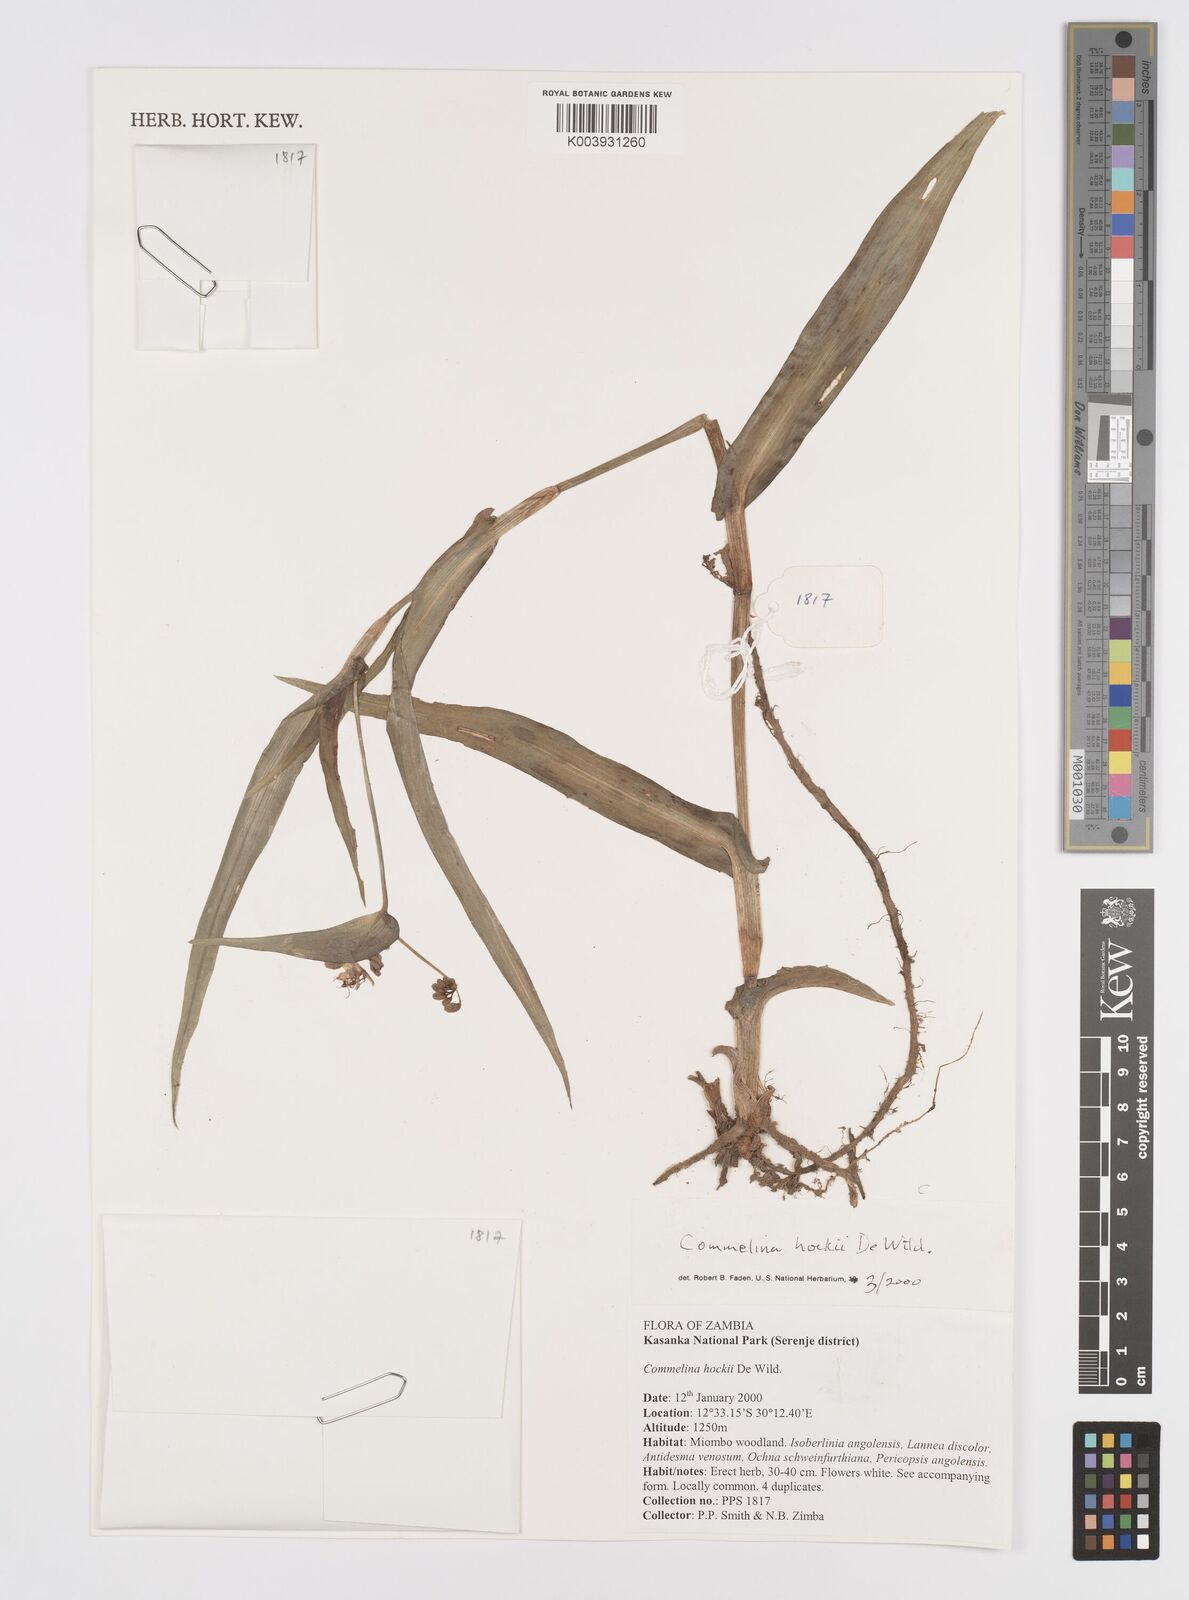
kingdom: Plantae
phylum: Tracheophyta
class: Liliopsida
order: Commelinales
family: Commelinaceae
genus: Commelina
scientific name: Commelina hockii
